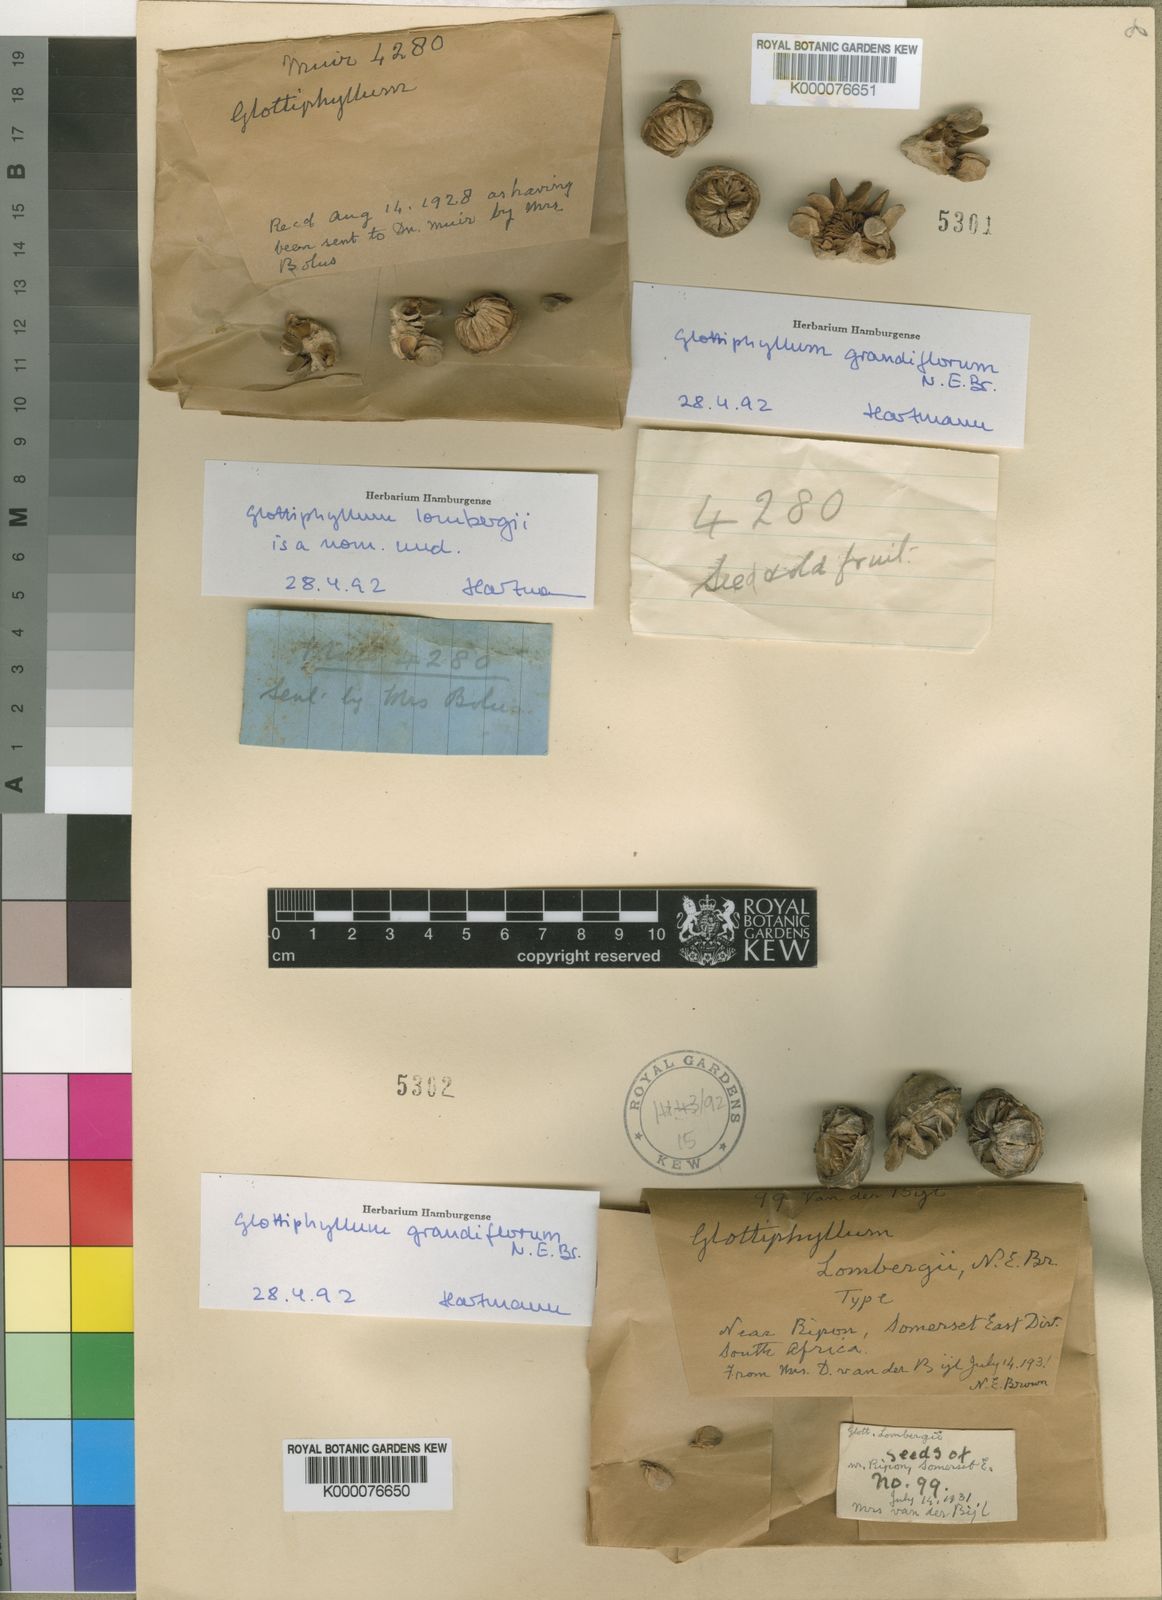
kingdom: Plantae
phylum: Tracheophyta
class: Magnoliopsida
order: Caryophyllales
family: Aizoaceae
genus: Glottiphyllum
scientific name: Glottiphyllum grandiflorum
